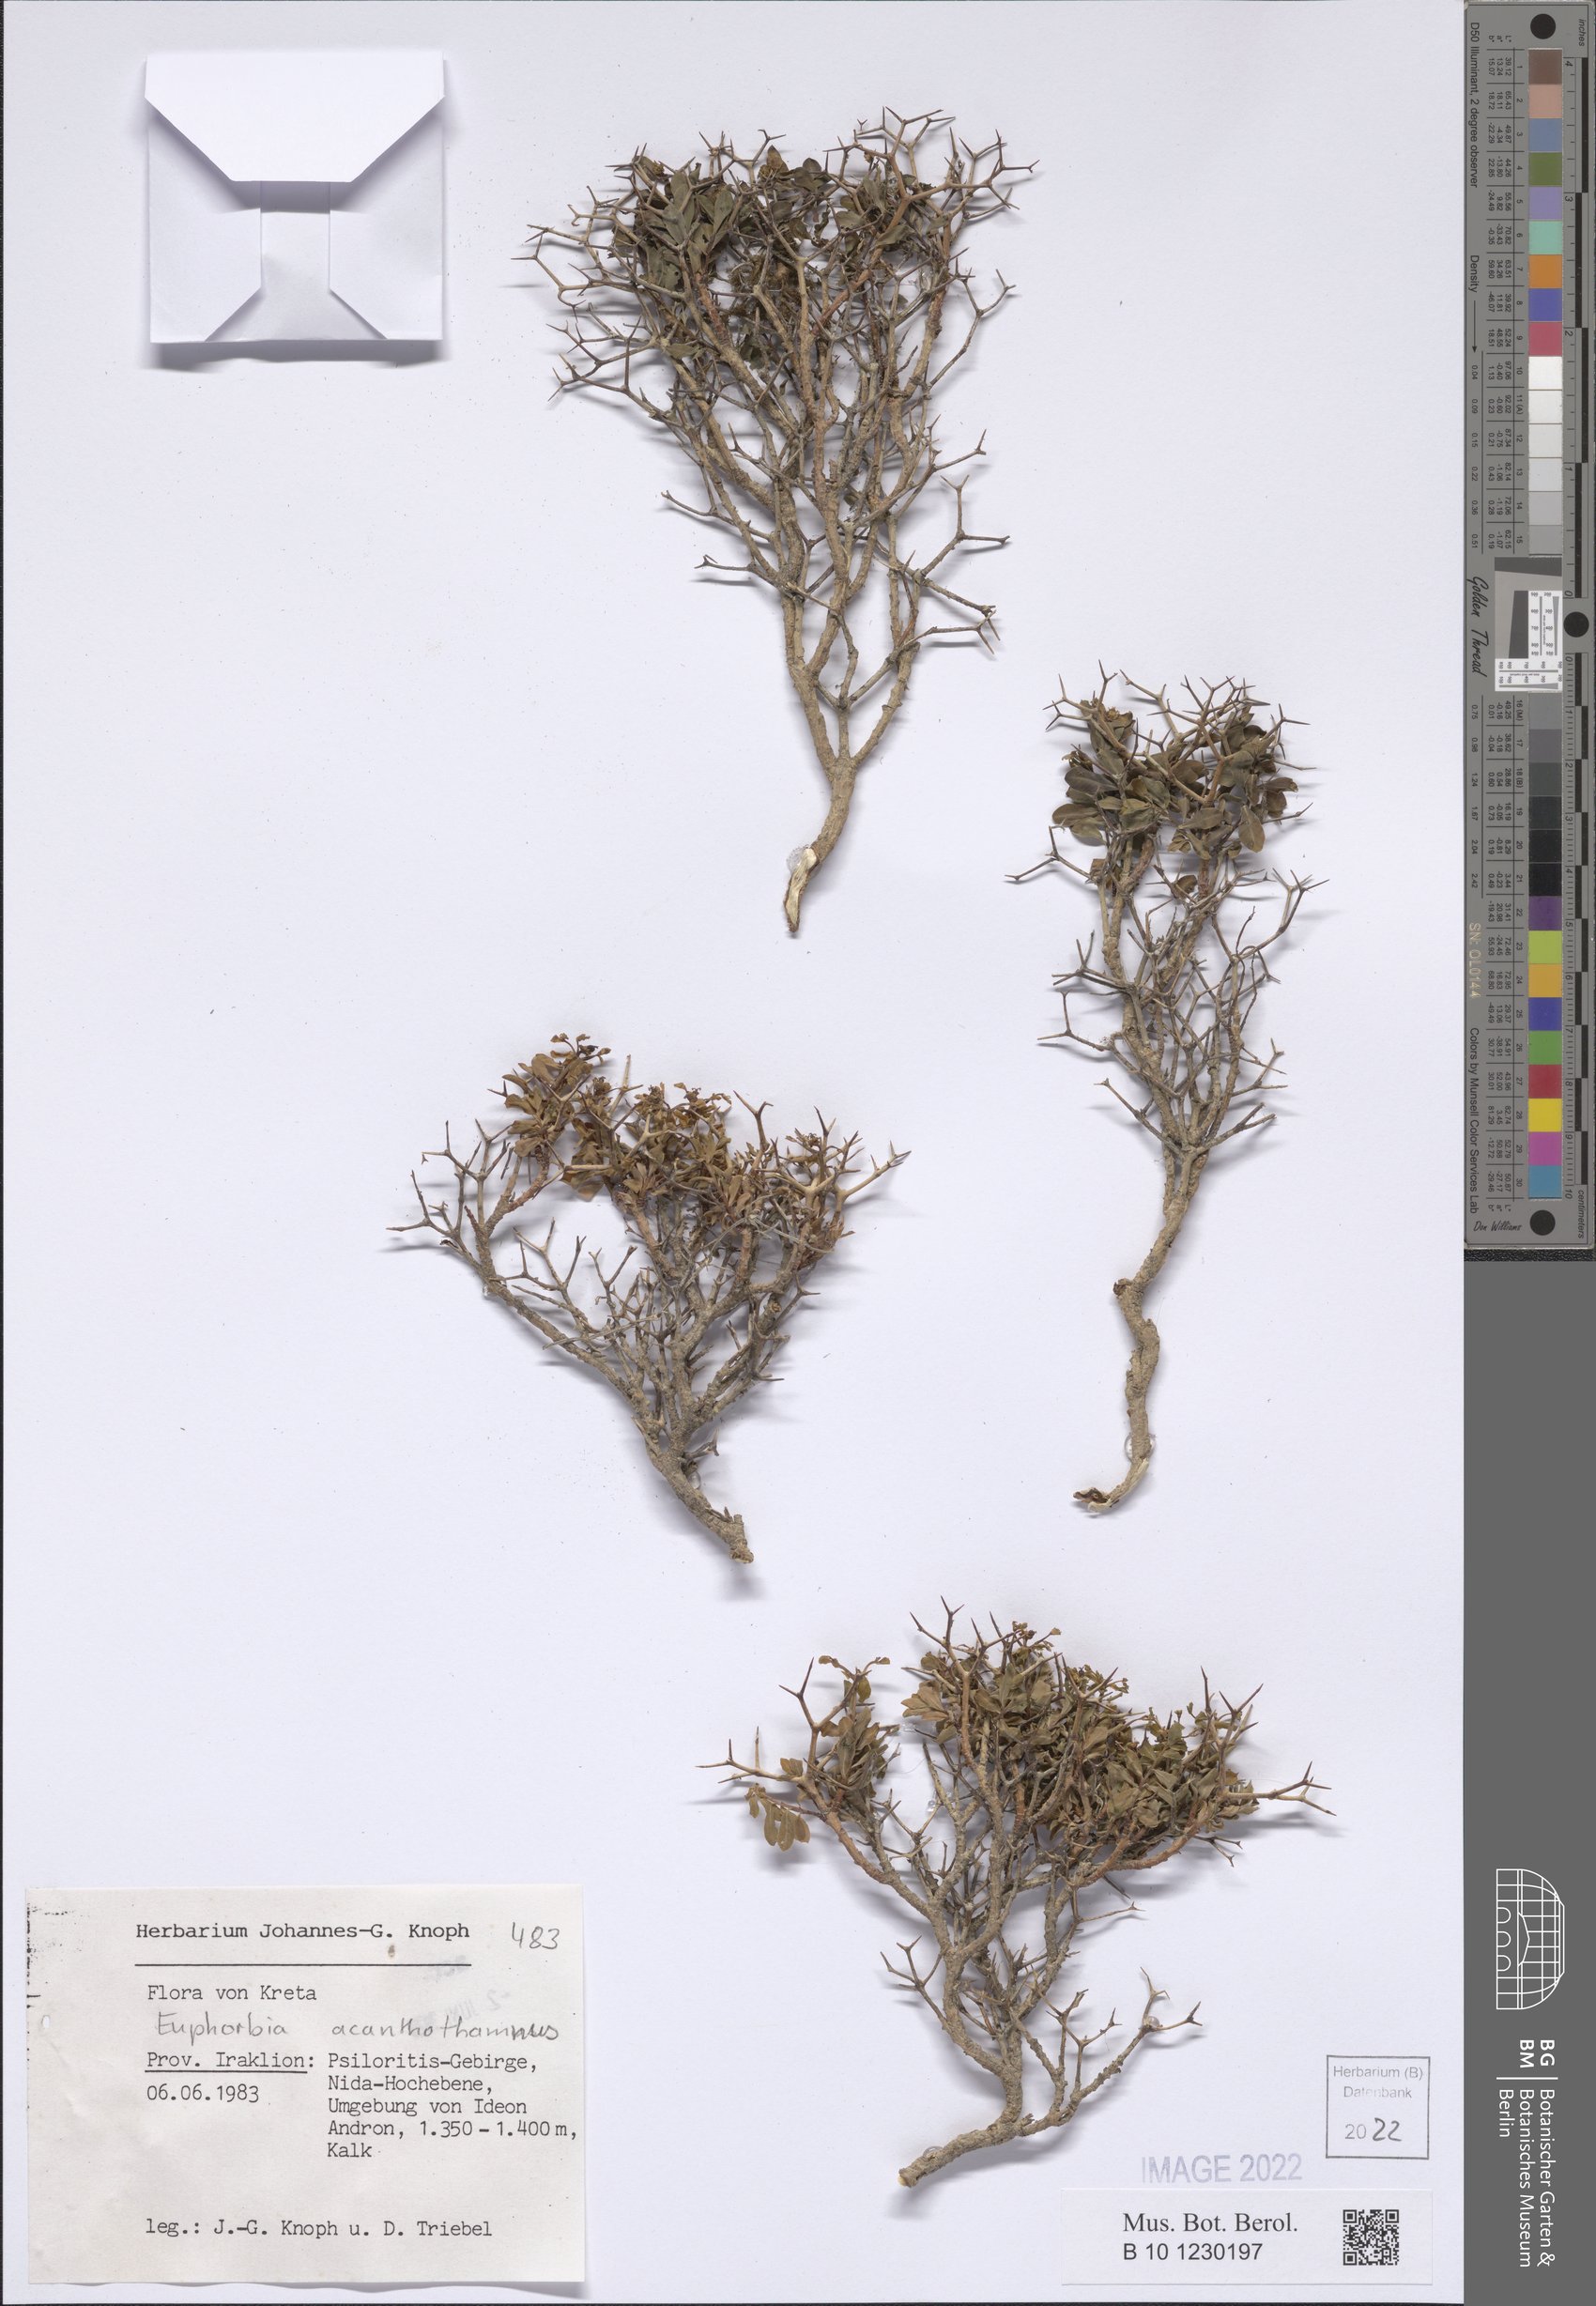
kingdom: Plantae
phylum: Tracheophyta
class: Magnoliopsida
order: Malpighiales
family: Euphorbiaceae
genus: Euphorbia
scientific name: Euphorbia acanthodes
